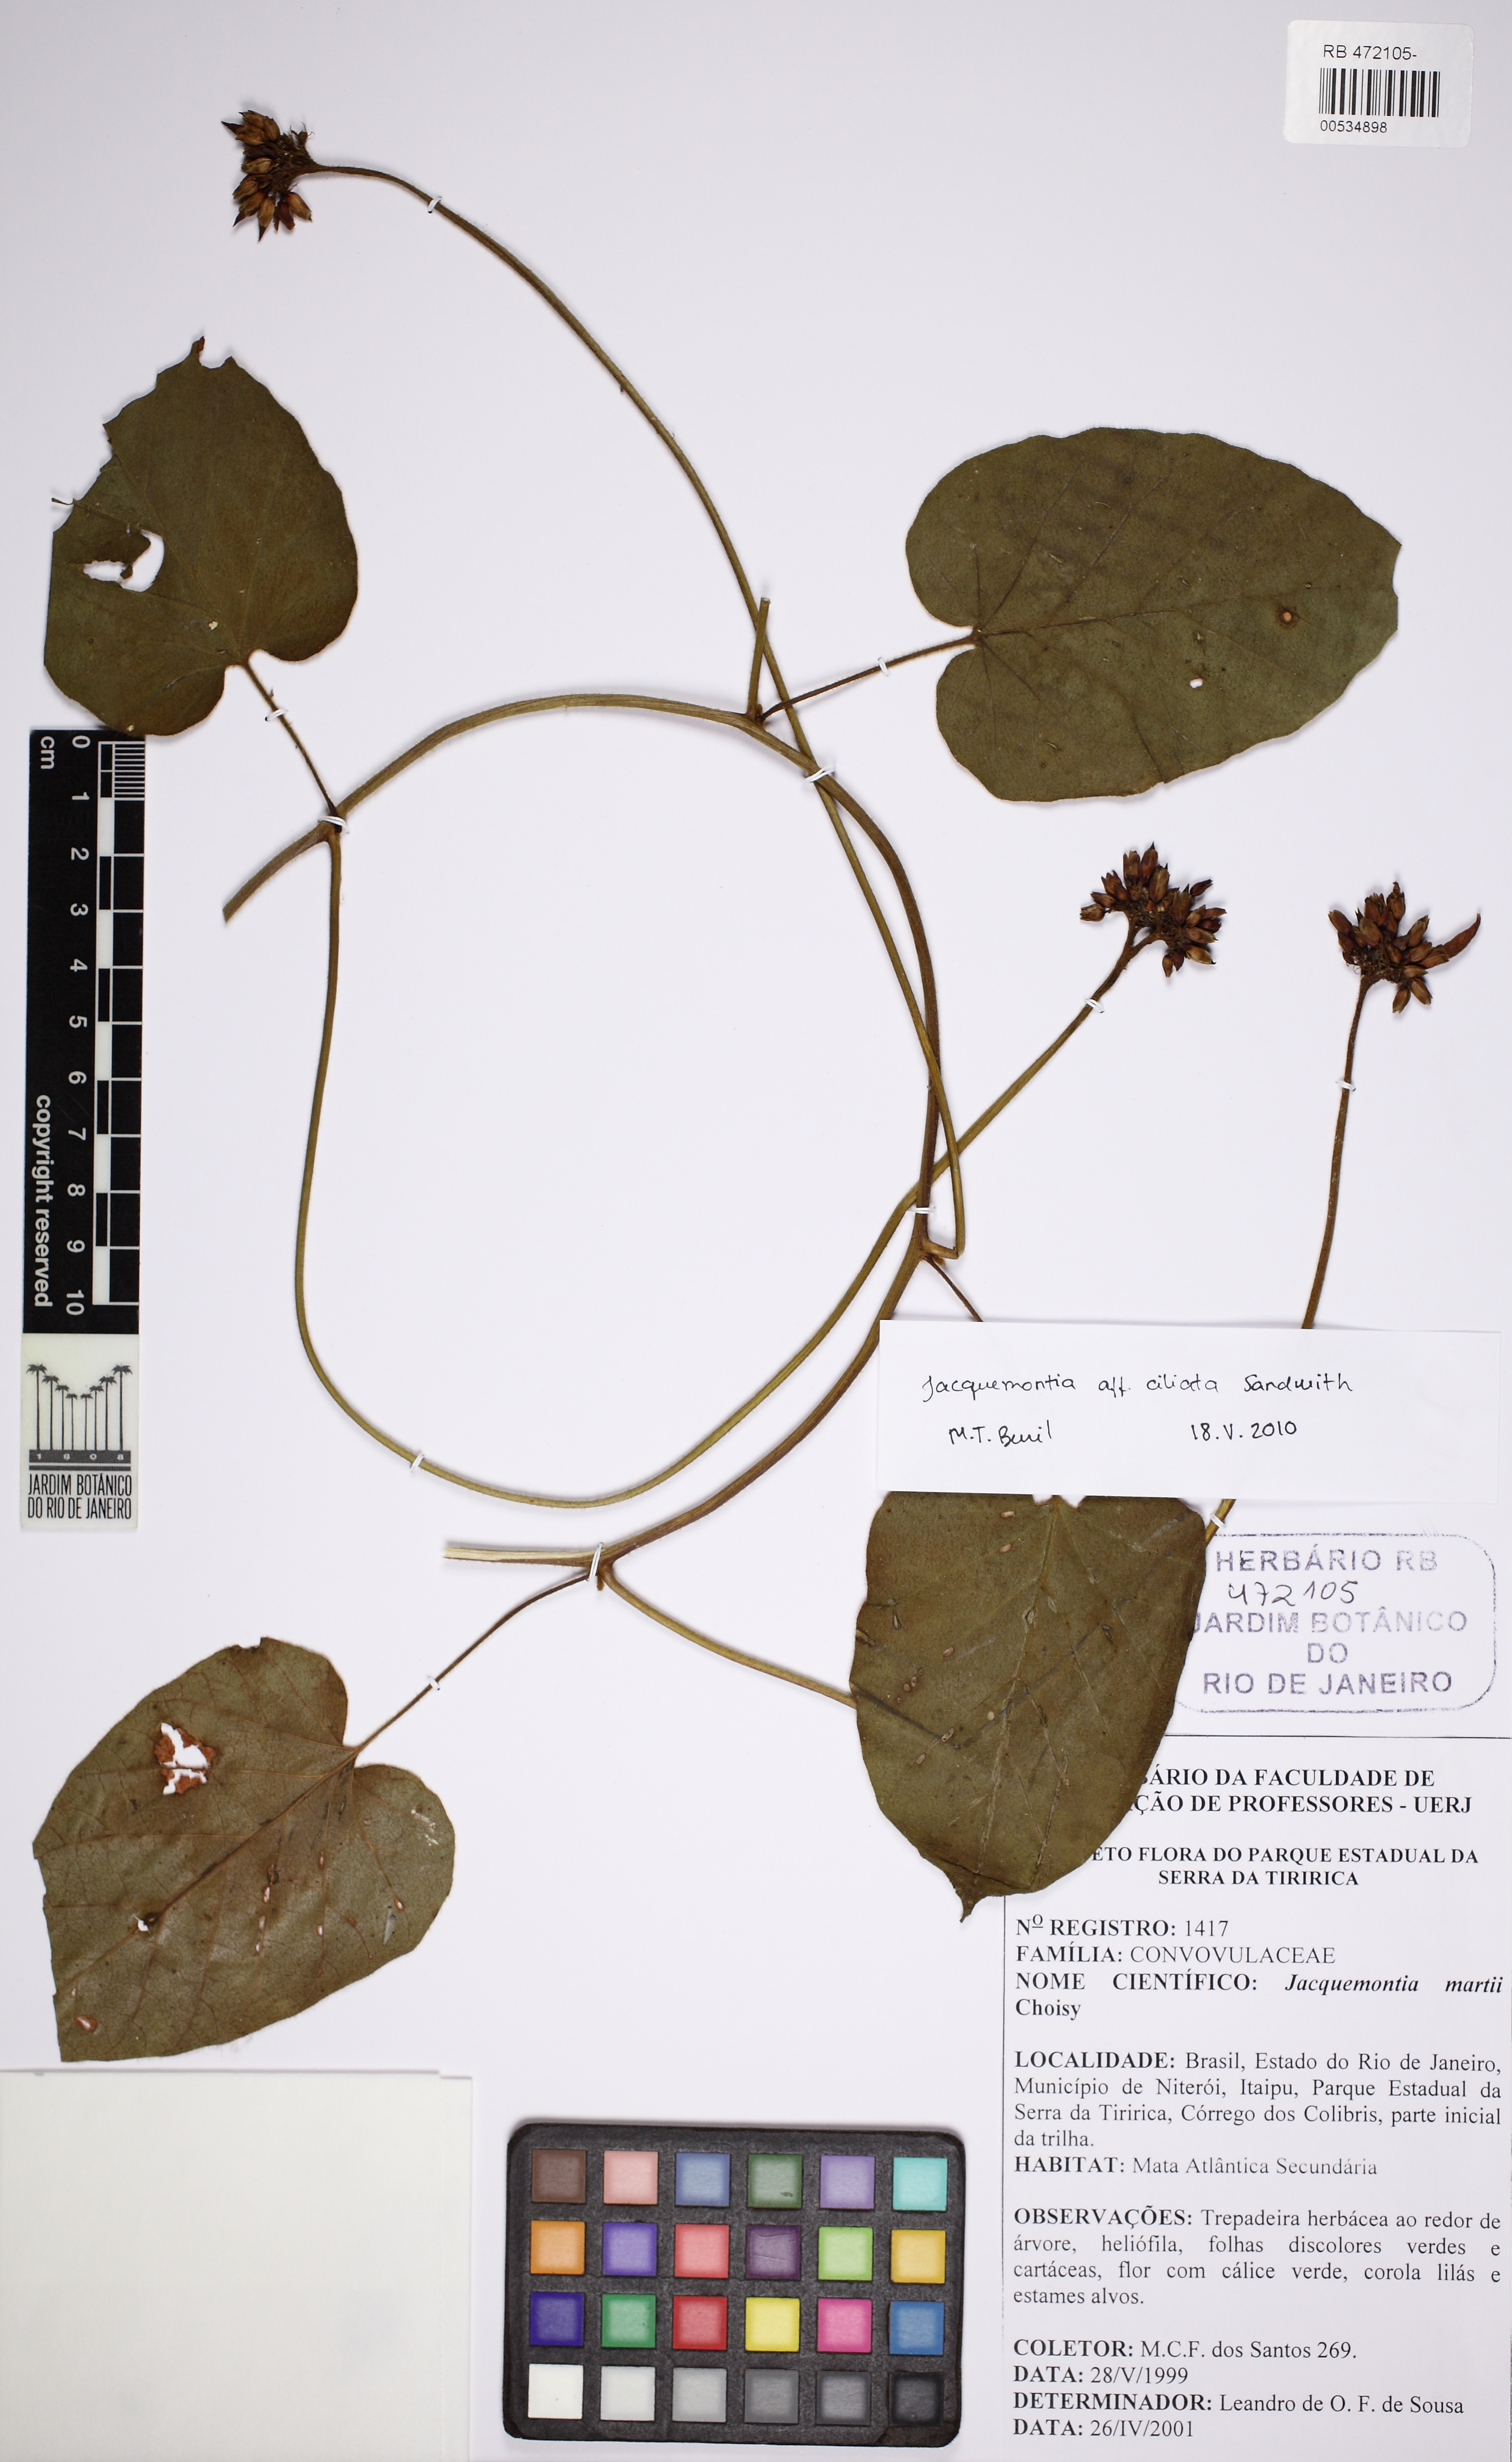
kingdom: Plantae
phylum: Tracheophyta
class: Magnoliopsida
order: Solanales
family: Convolvulaceae
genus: Jacquemontia
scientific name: Jacquemontia gabrielii
